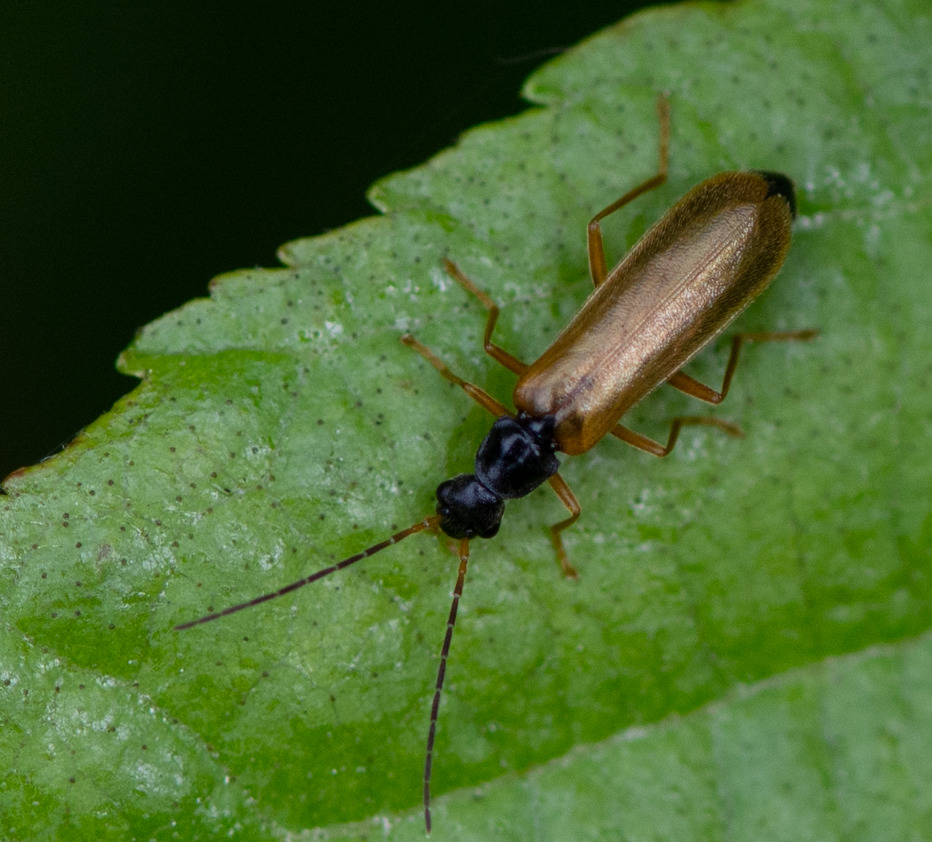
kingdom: Animalia
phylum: Arthropoda
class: Insecta
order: Coleoptera
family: Cantharidae
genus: Rhagonycha
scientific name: Rhagonycha lignosa
